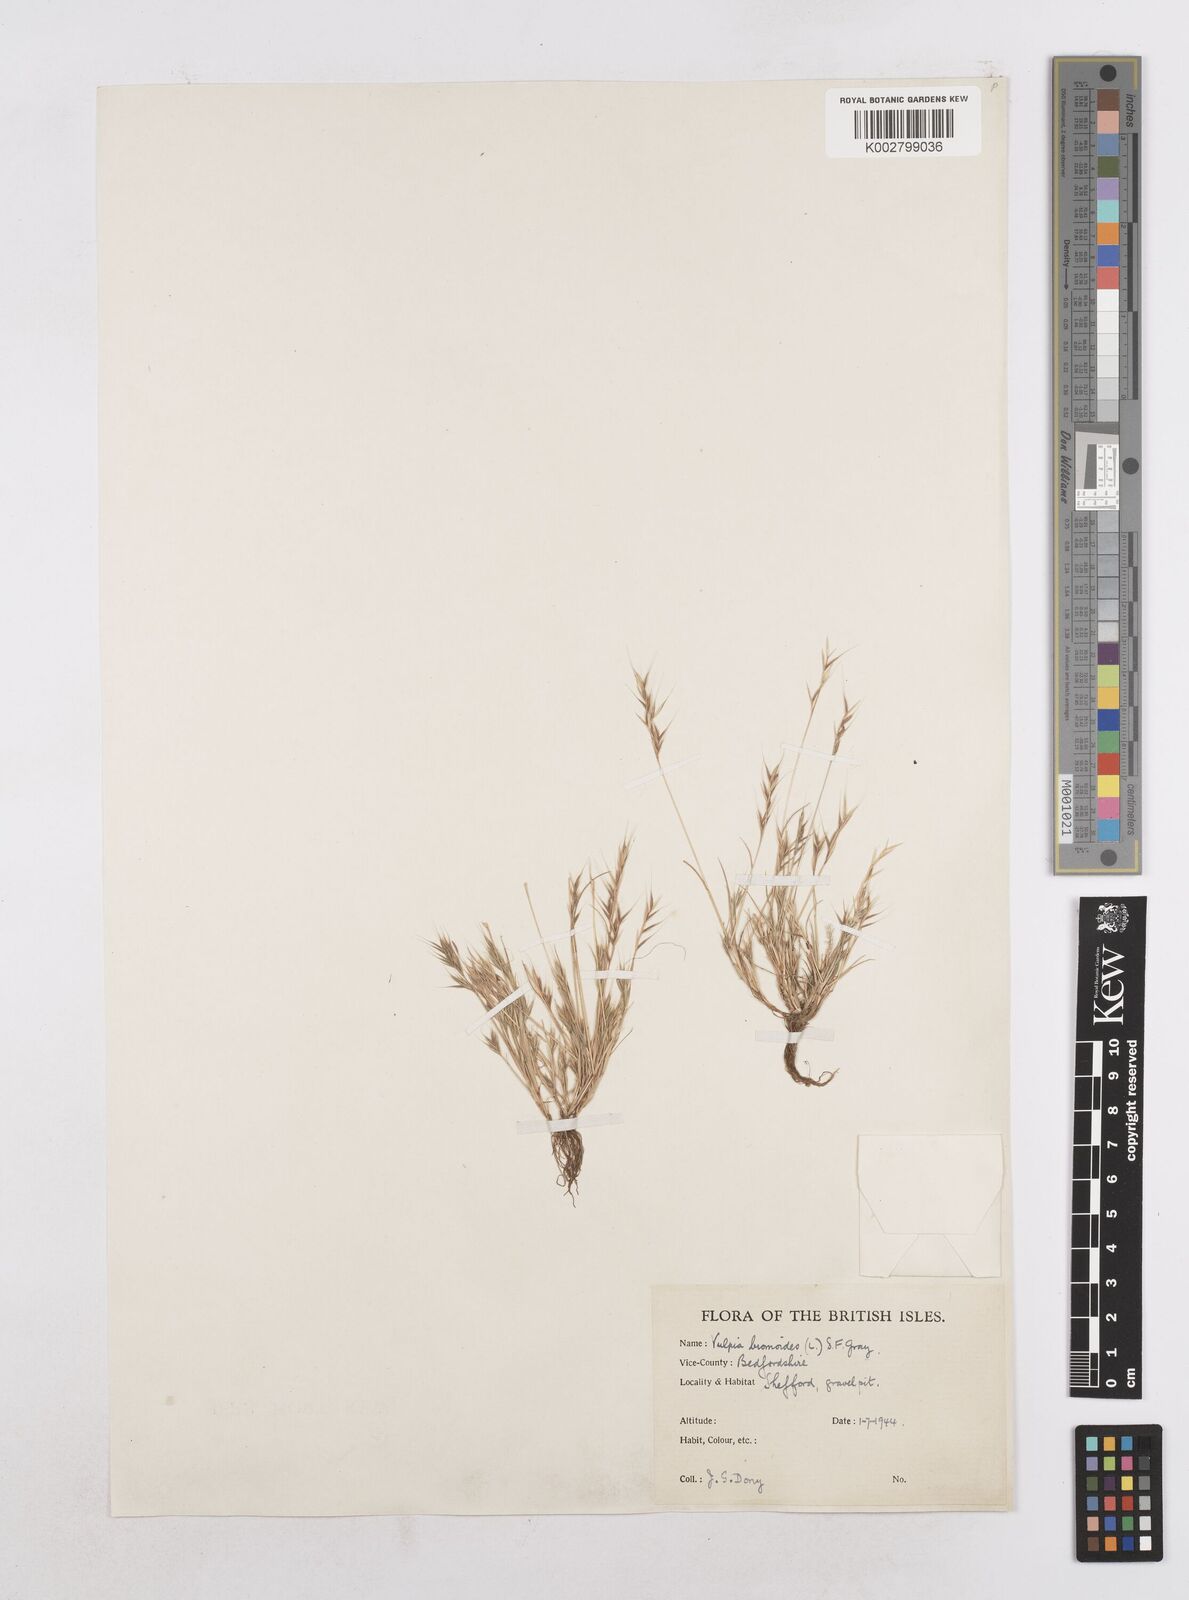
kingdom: Plantae
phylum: Tracheophyta
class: Liliopsida
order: Poales
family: Poaceae
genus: Festuca
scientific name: Festuca bromoides
